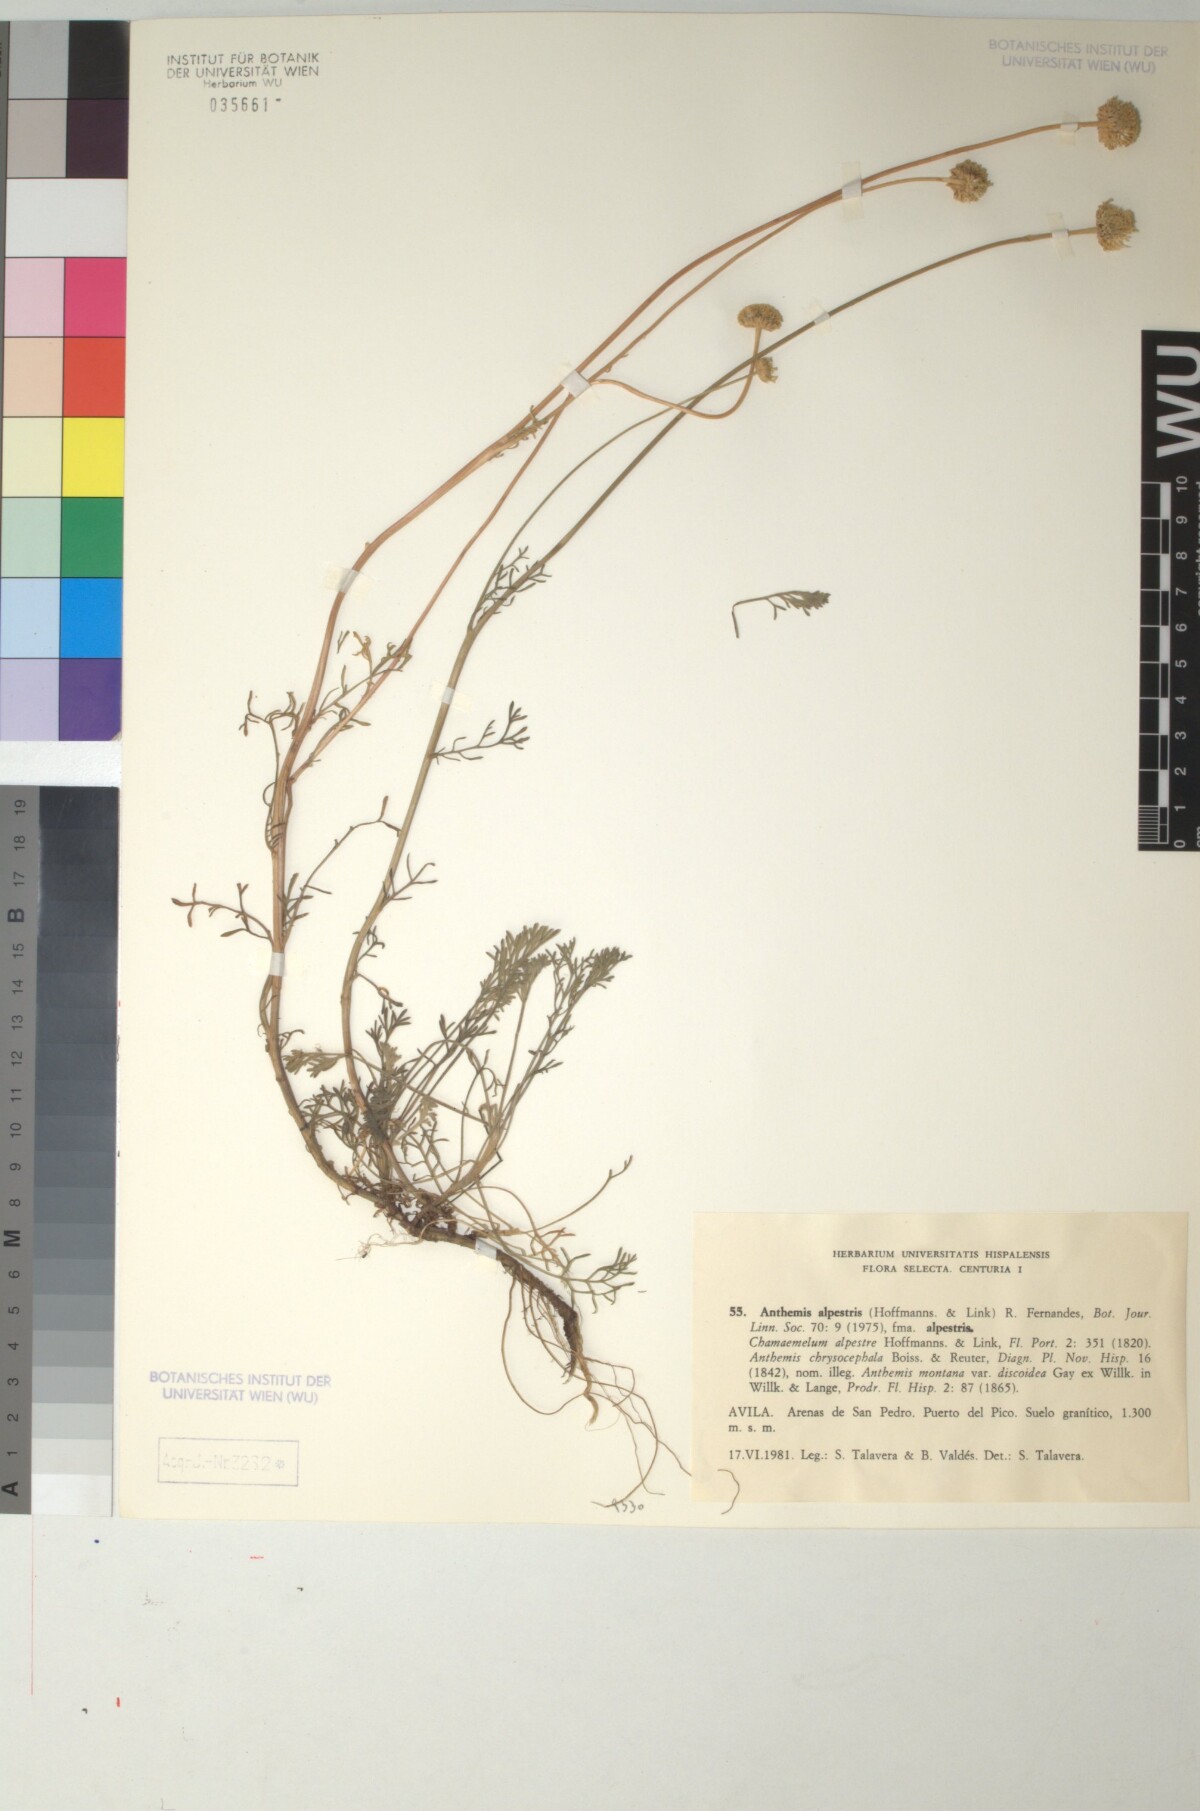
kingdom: Plantae
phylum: Tracheophyta
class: Magnoliopsida
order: Asterales
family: Asteraceae
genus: Anthemis
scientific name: Anthemis alpestris
